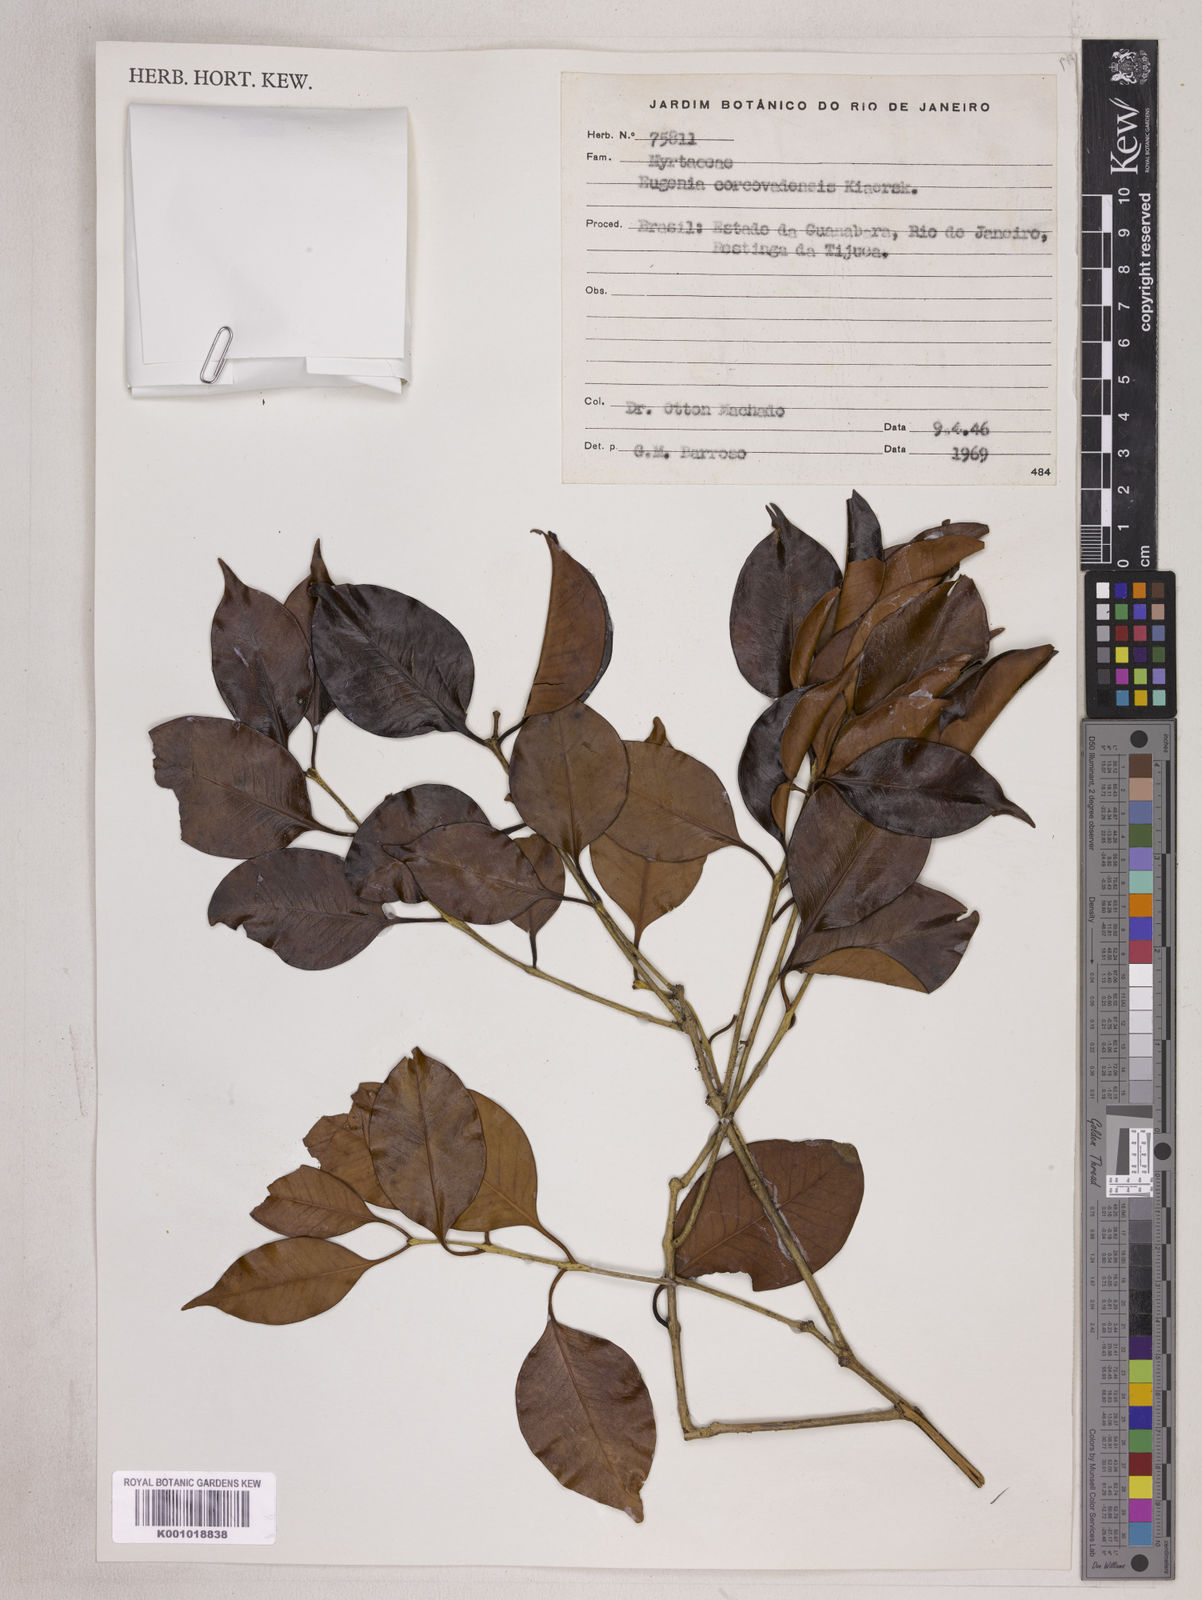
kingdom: Plantae
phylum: Tracheophyta
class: Magnoliopsida
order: Myrtales
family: Myrtaceae
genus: Eugenia
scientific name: Eugenia copacabanensis
